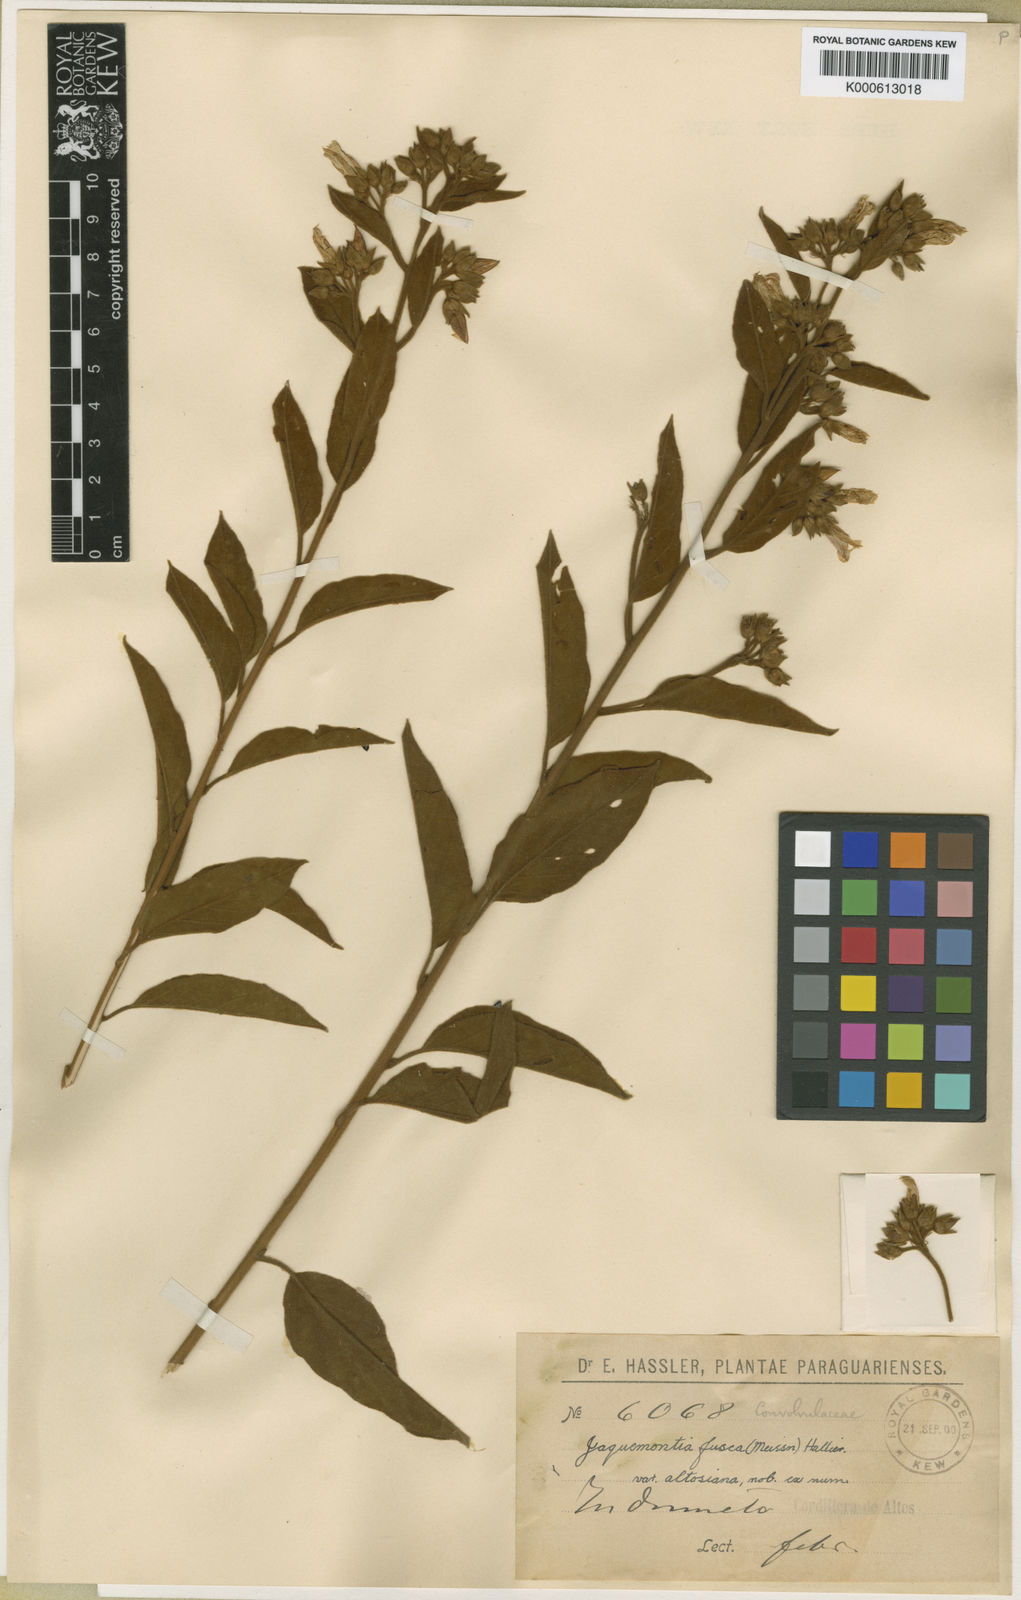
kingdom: Plantae
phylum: Tracheophyta
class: Magnoliopsida
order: Solanales
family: Convolvulaceae
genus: Jacquemontia
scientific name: Jacquemontia paraguayensis
